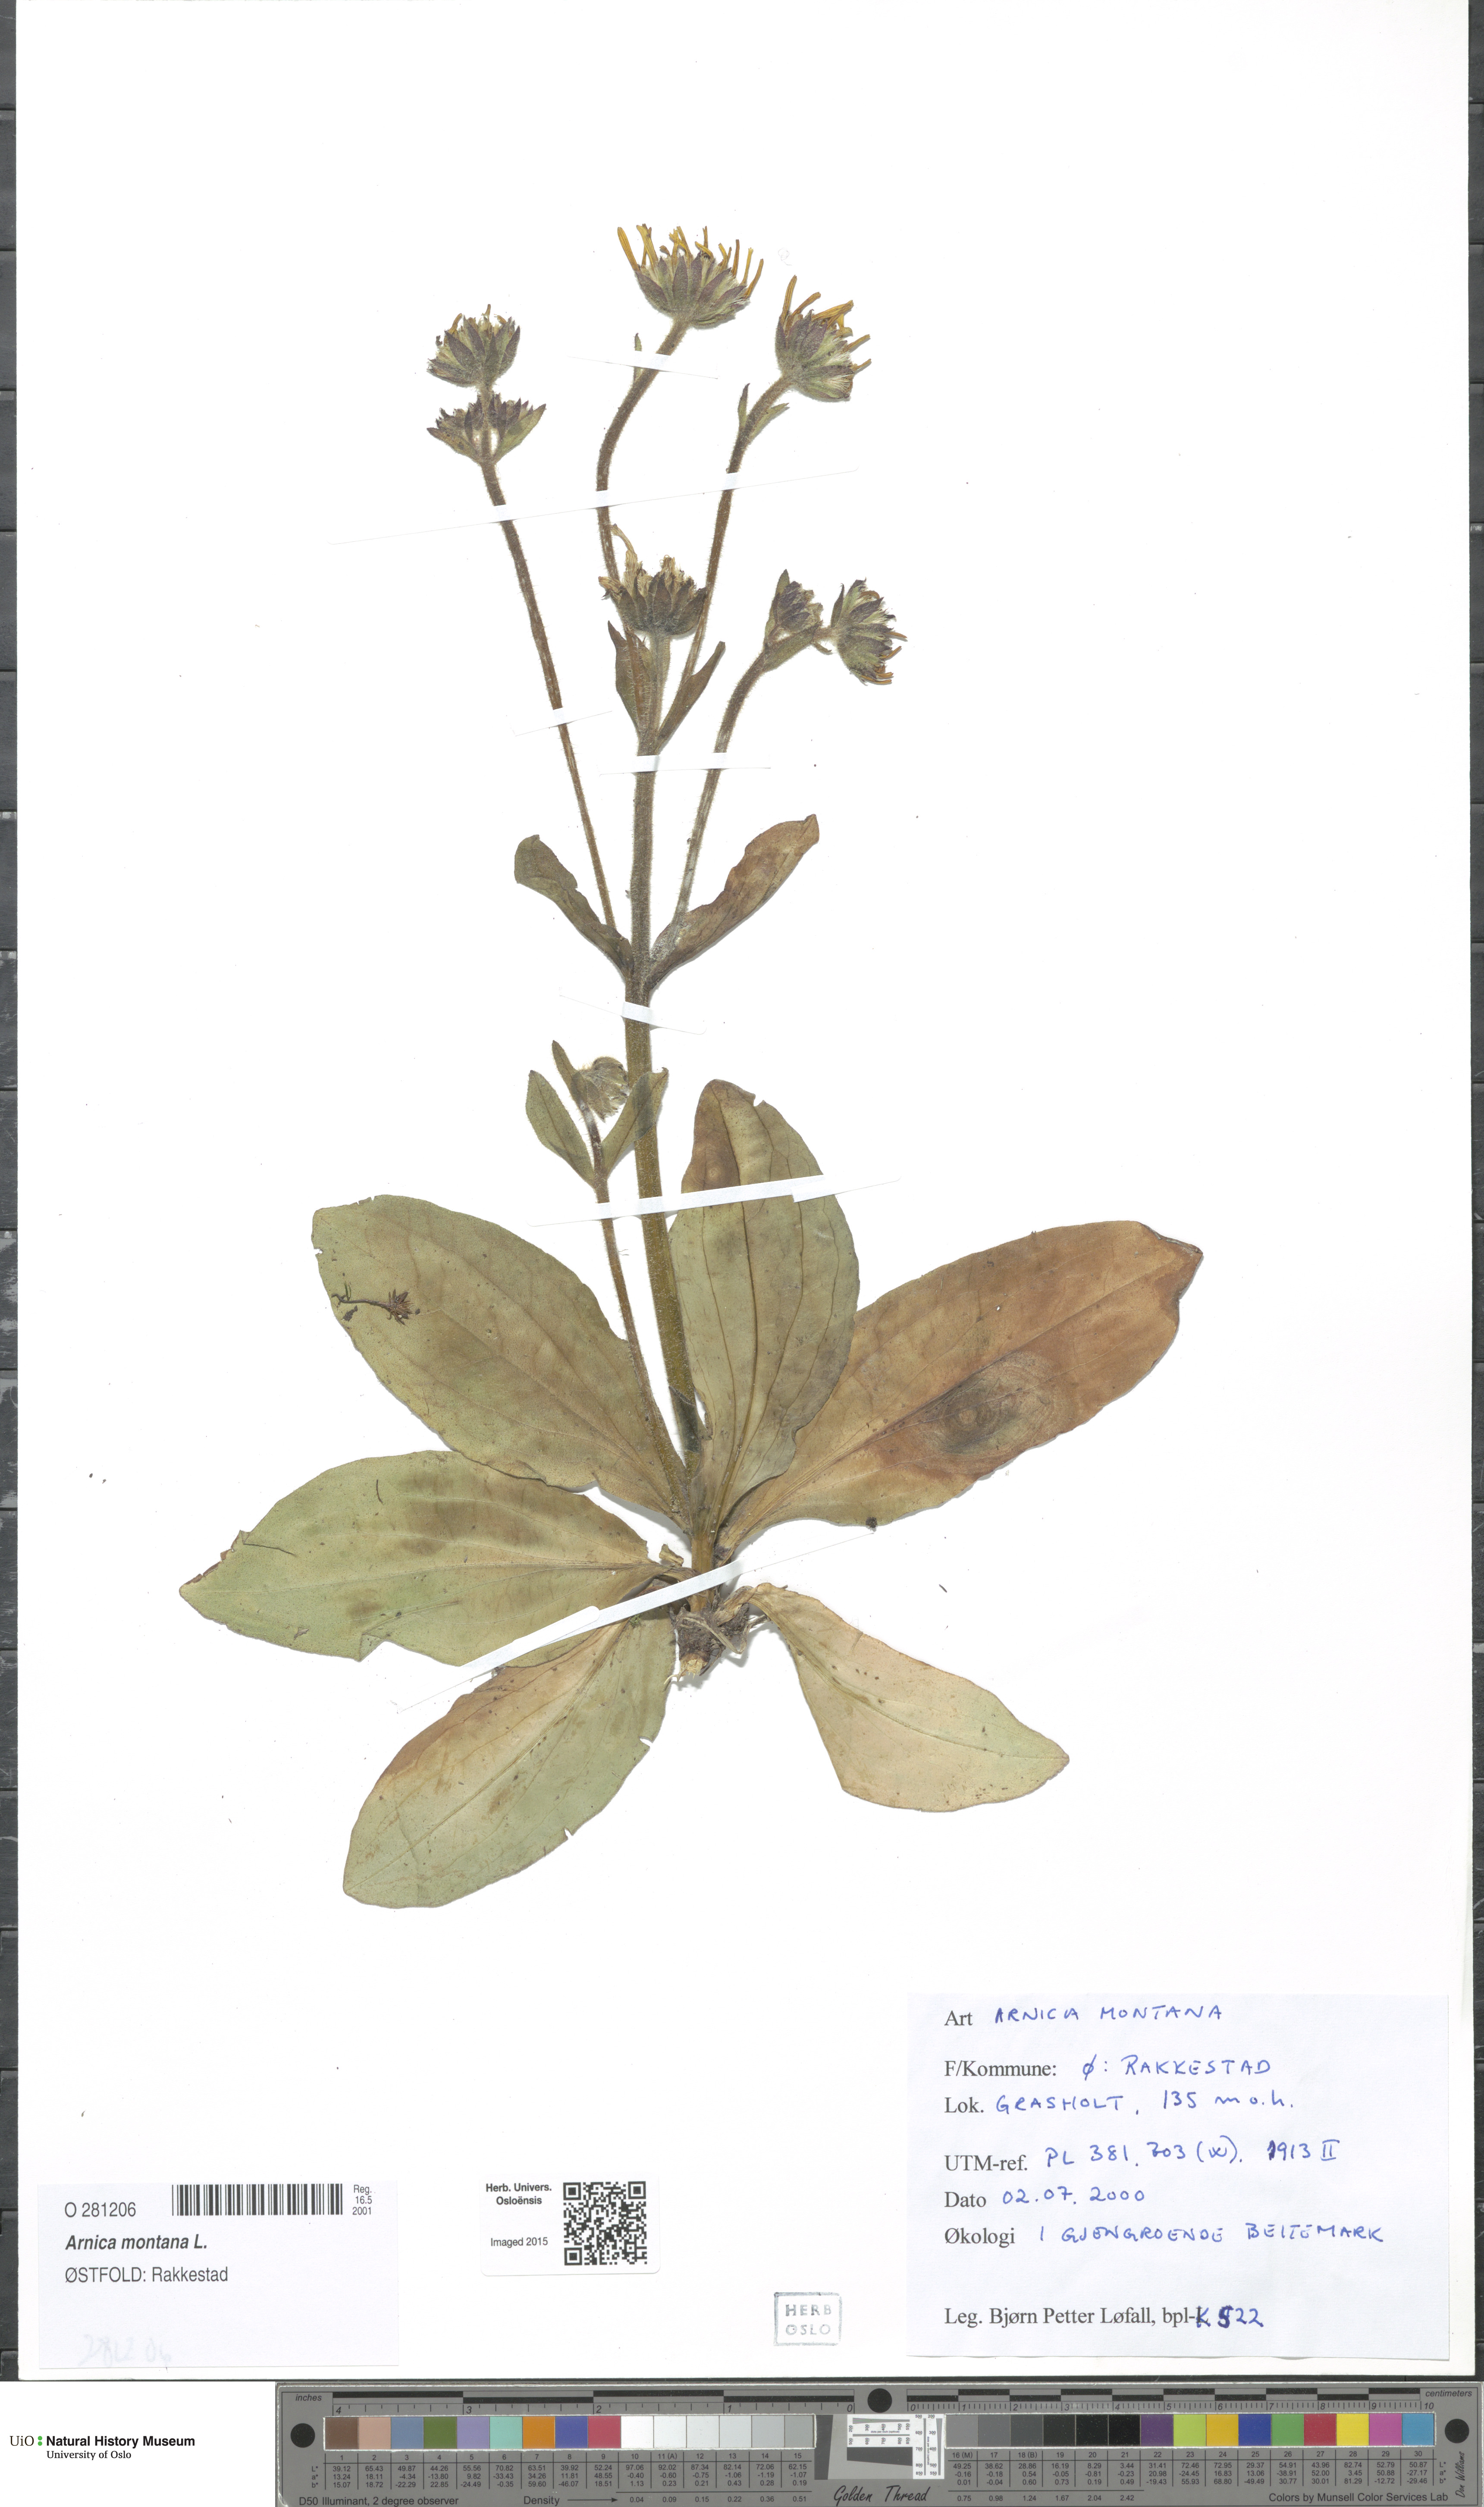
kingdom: Plantae
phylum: Tracheophyta
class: Magnoliopsida
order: Asterales
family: Asteraceae
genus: Arnica
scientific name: Arnica montana
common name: Leopard's bane
